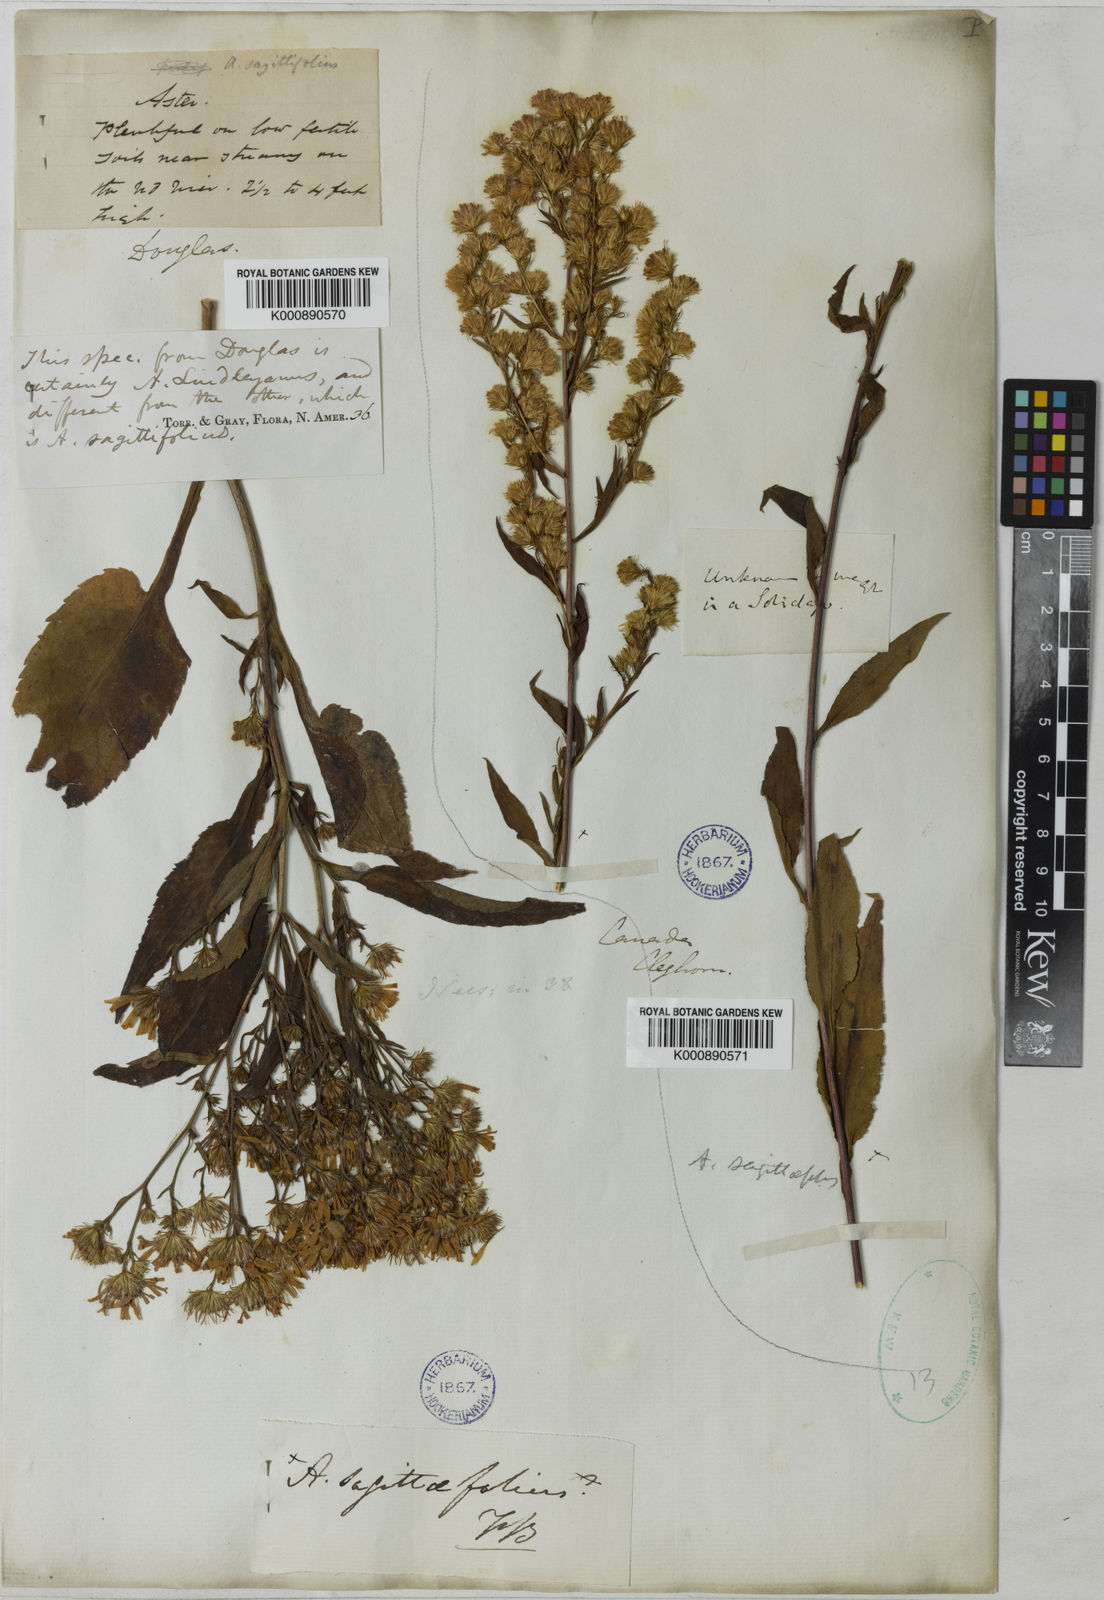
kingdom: Plantae
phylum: Tracheophyta
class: Magnoliopsida
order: Asterales
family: Asteraceae
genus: Symphyotrichum
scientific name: Symphyotrichum ciliolatum
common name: Fringed blue aster
